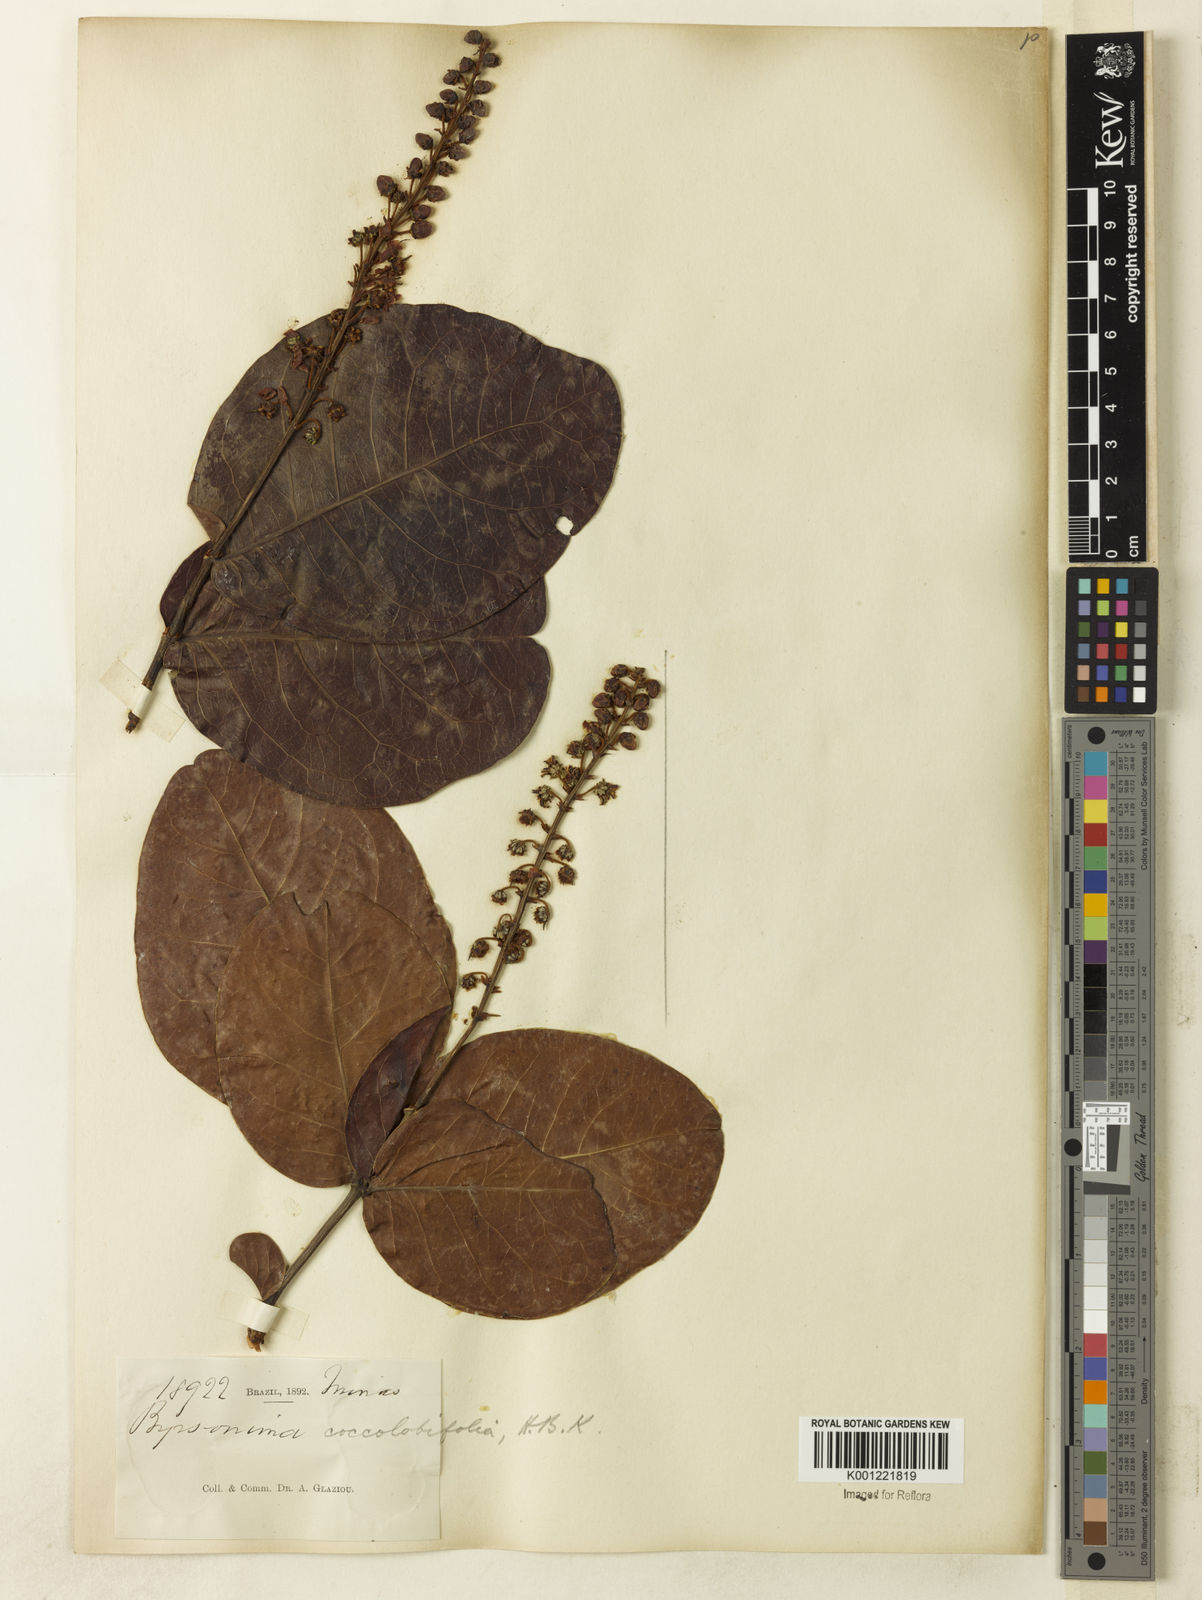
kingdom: Plantae
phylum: Tracheophyta
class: Magnoliopsida
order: Malpighiales
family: Malpighiaceae
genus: Byrsonima
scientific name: Byrsonima coccolobifolia
